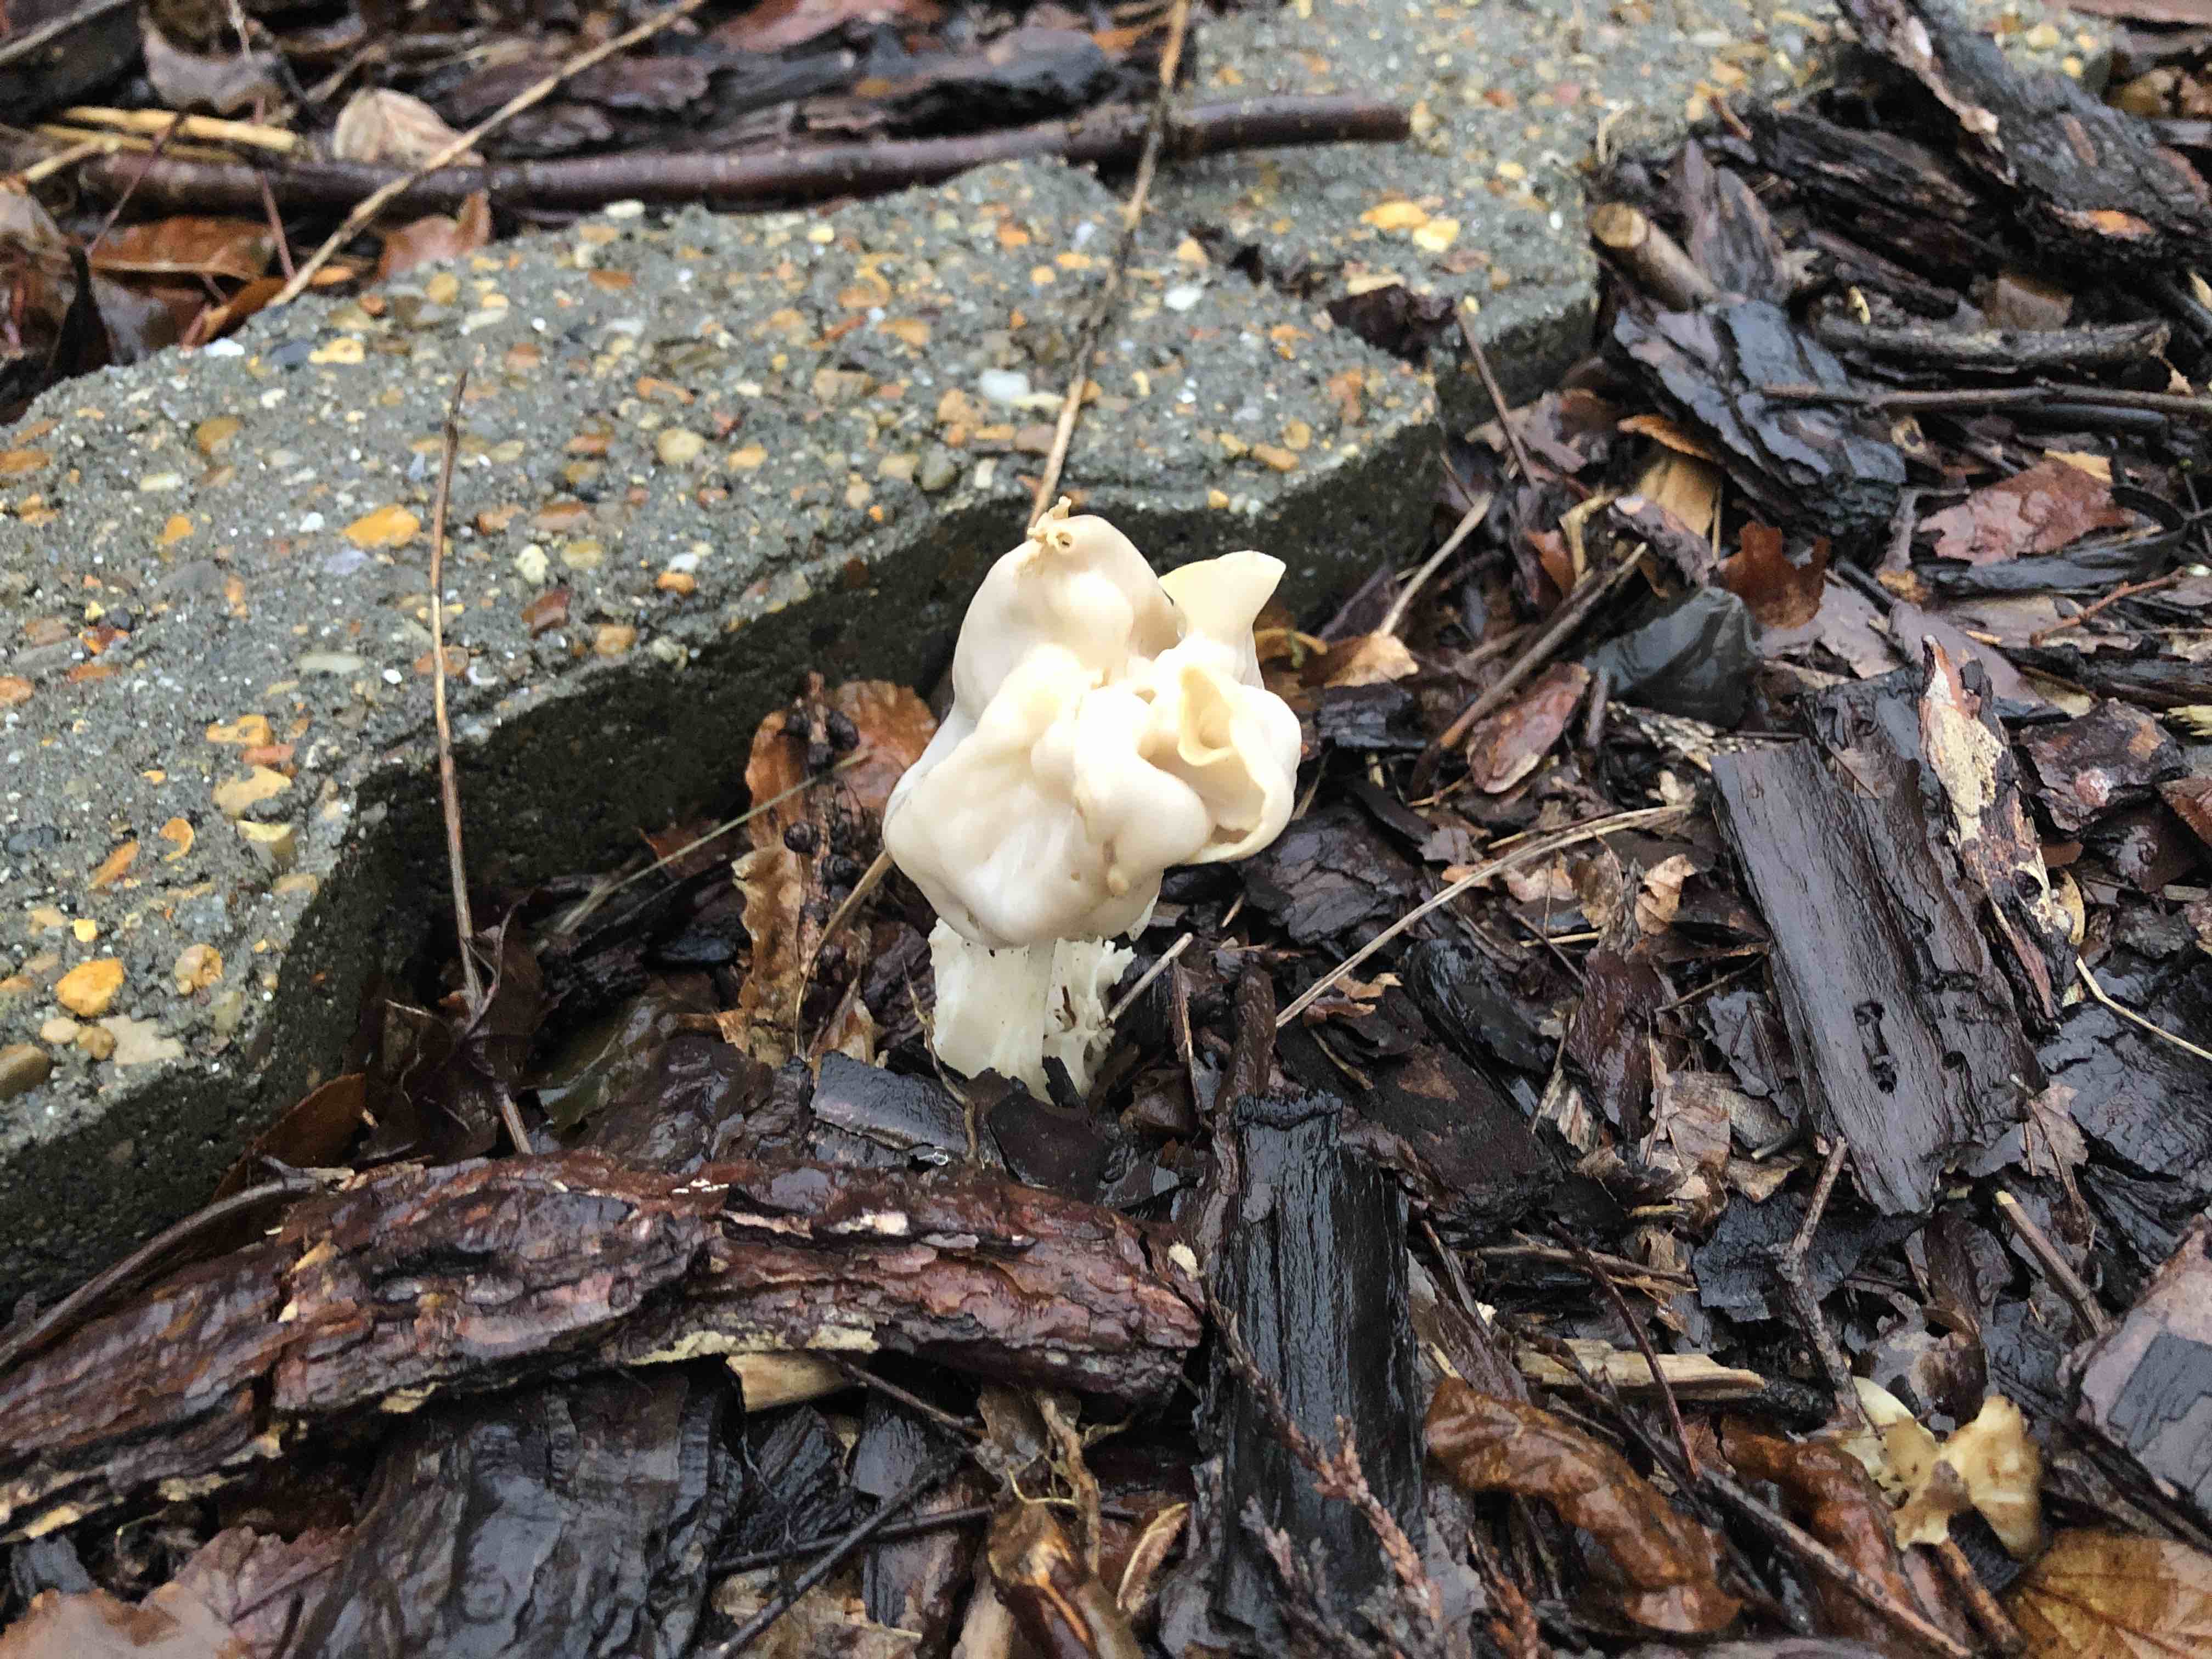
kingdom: Fungi
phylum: Ascomycota
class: Pezizomycetes
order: Pezizales
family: Helvellaceae
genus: Helvella
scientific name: Helvella crispa
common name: kruset foldhat
